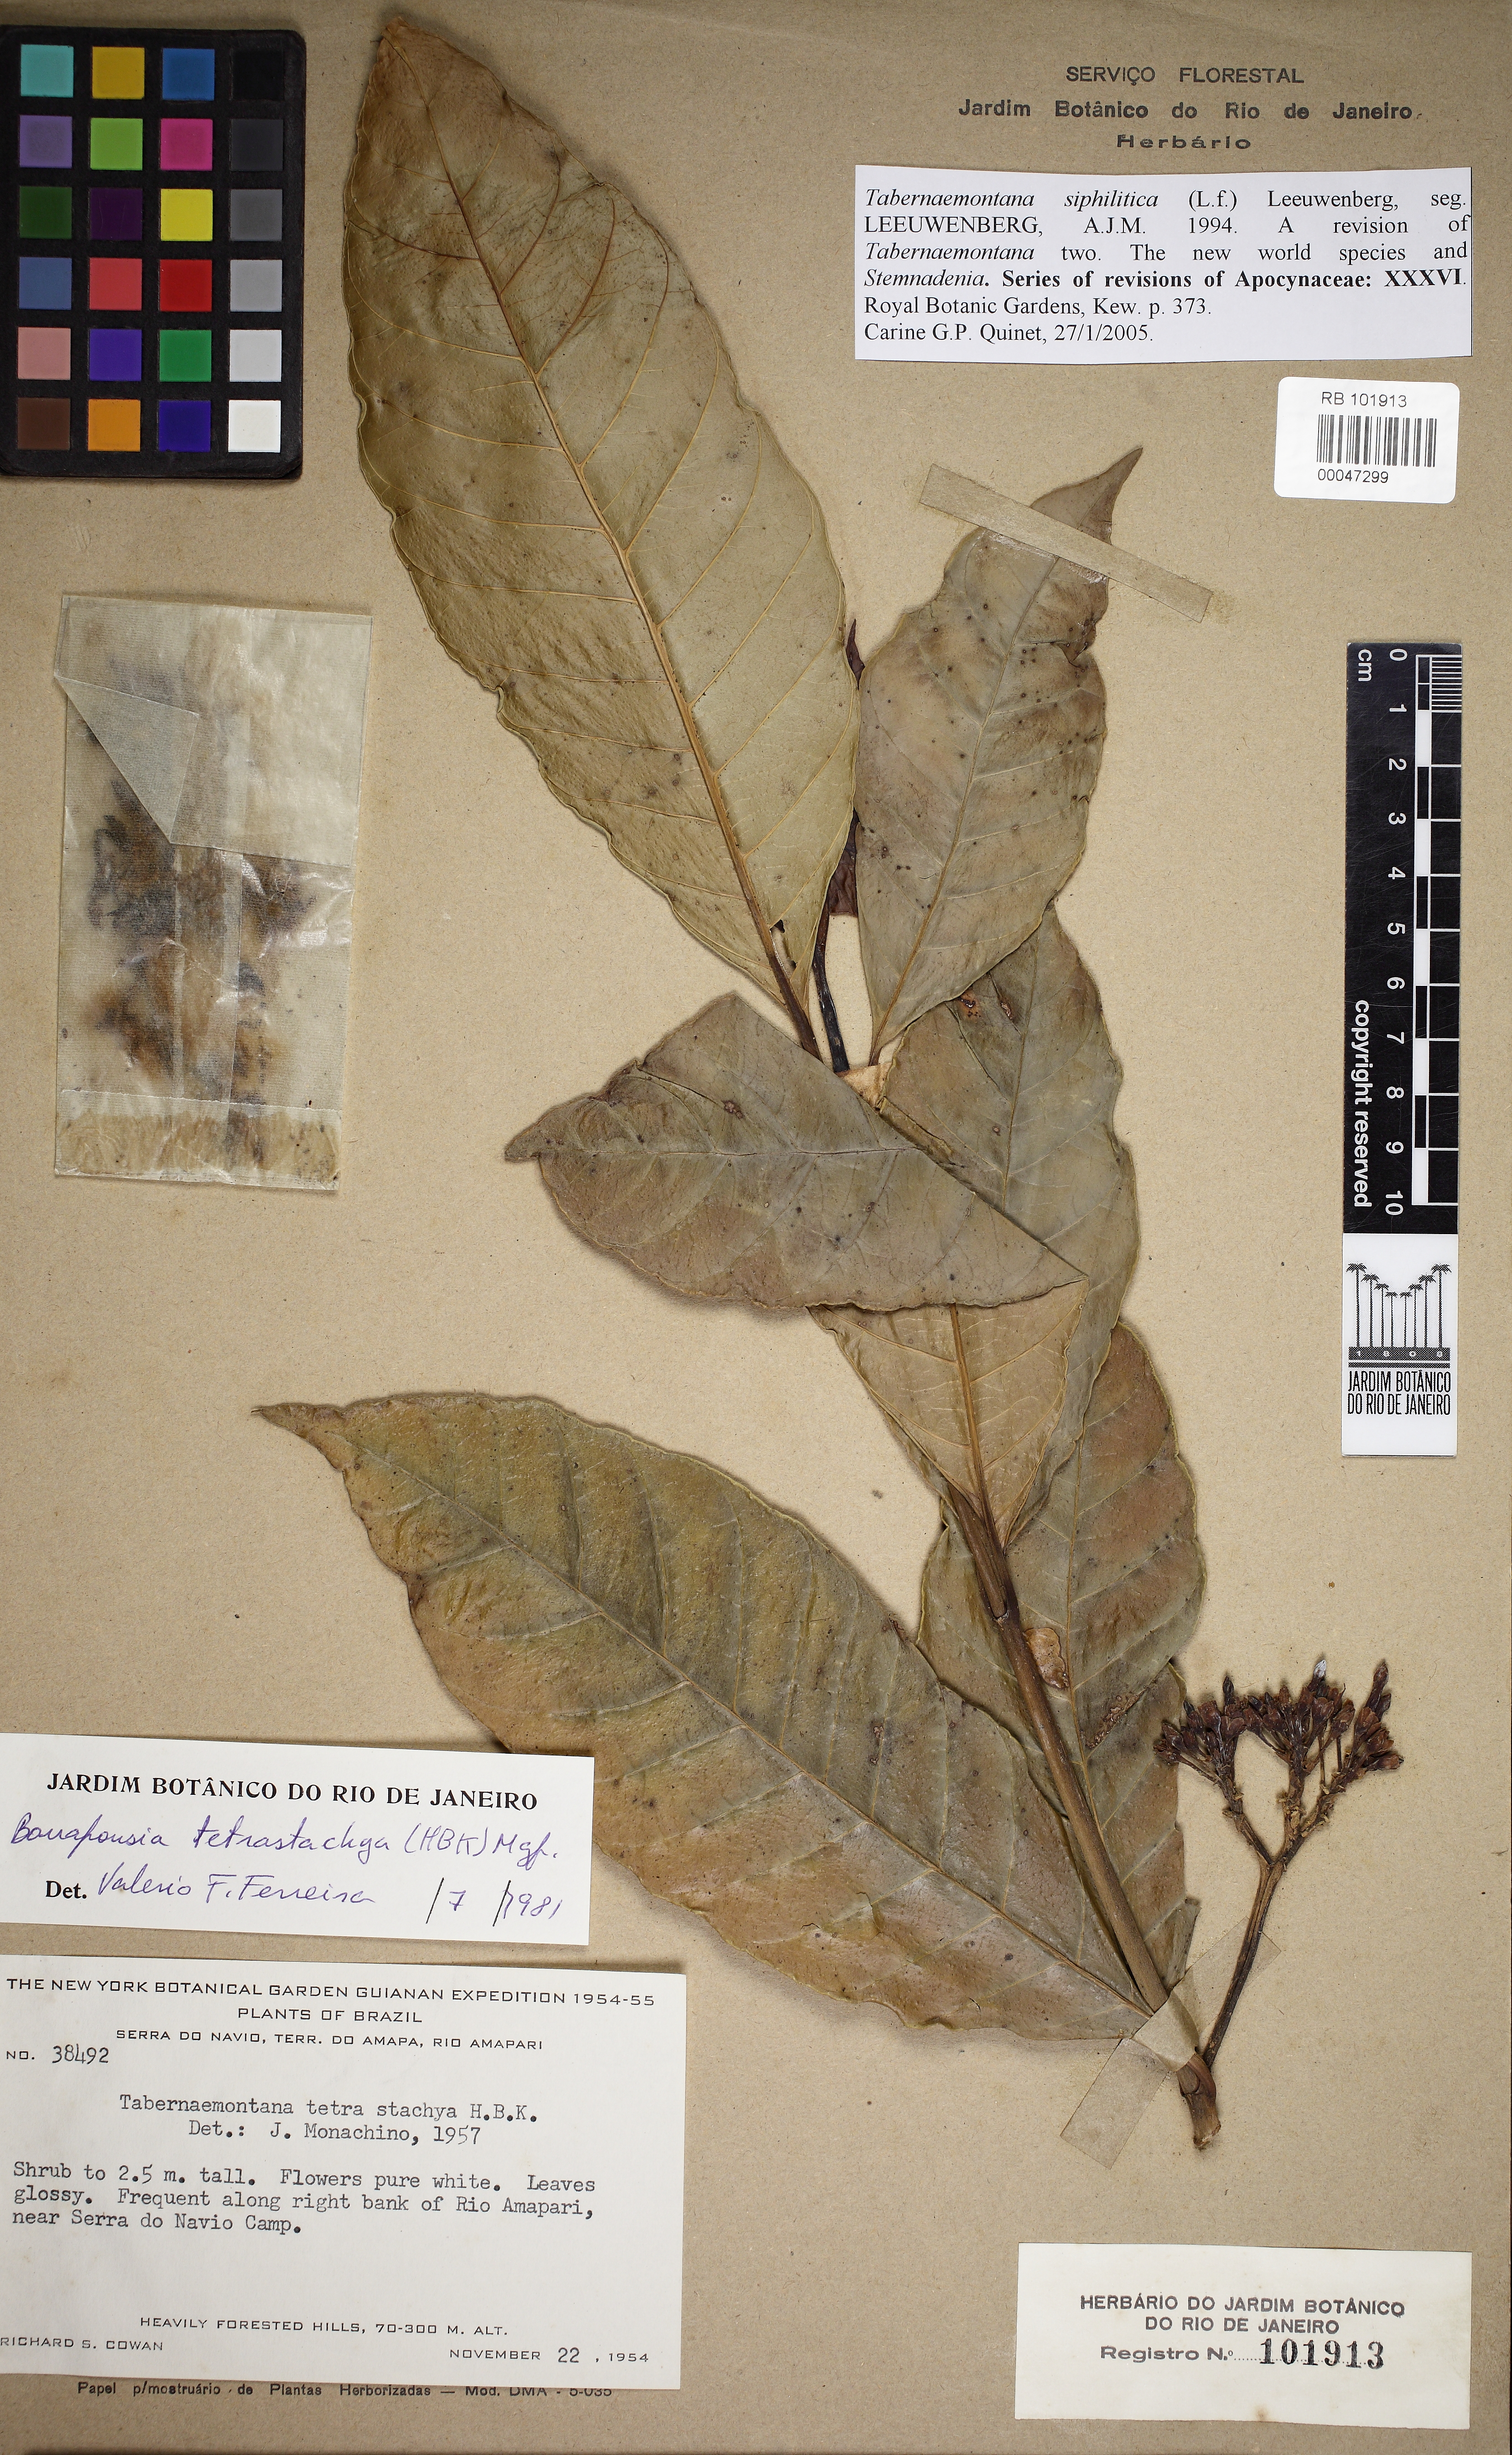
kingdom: Plantae
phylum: Tracheophyta
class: Magnoliopsida
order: Gentianales
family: Apocynaceae
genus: Tabernaemontana
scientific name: Tabernaemontana siphilitica
